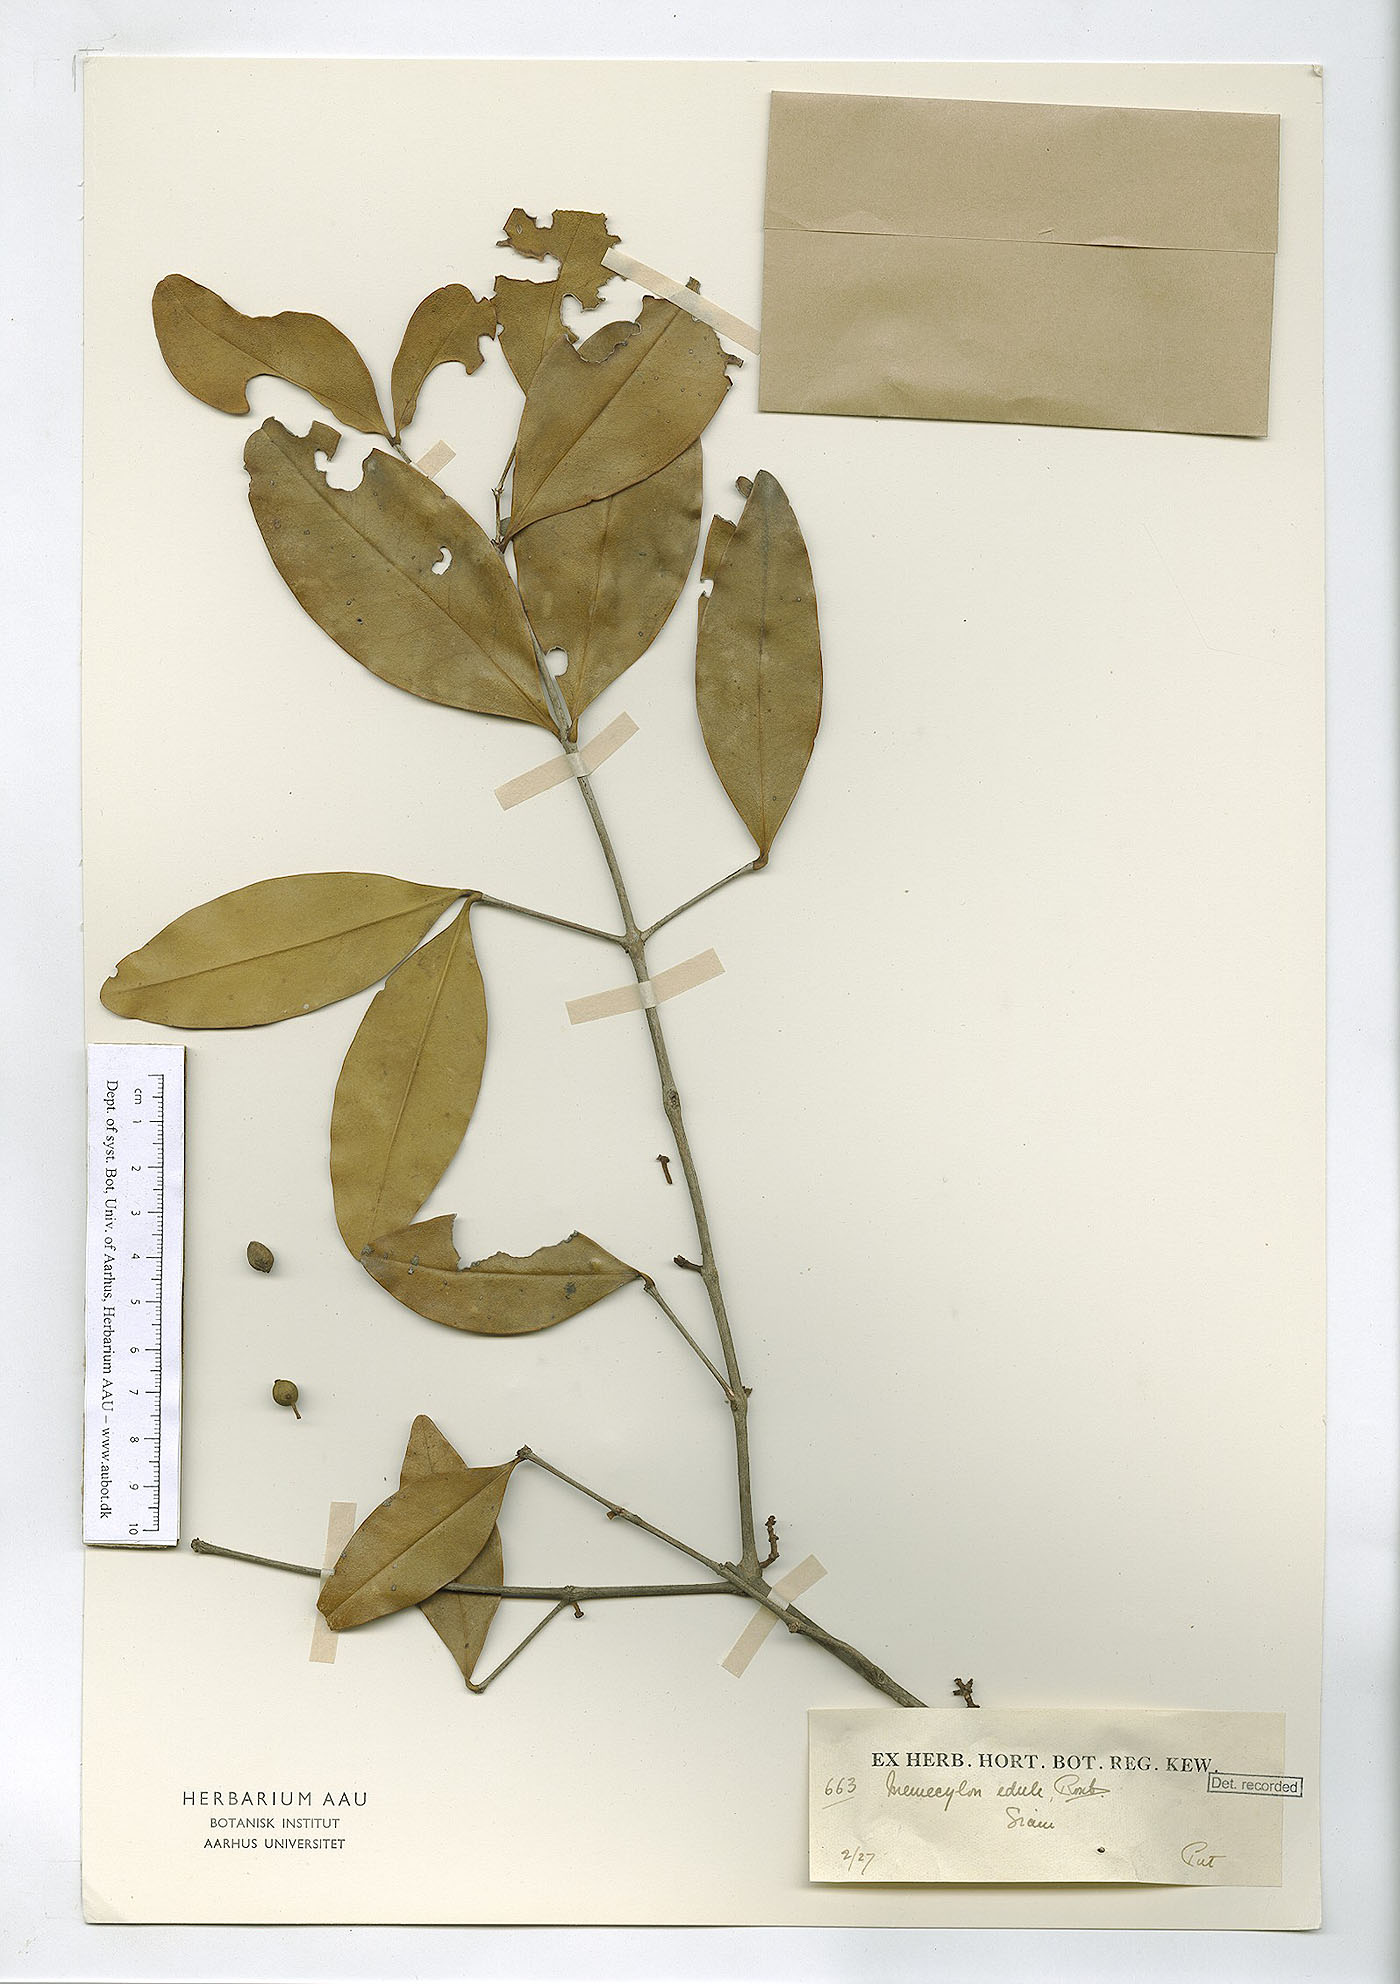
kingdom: Plantae
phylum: Tracheophyta
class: Magnoliopsida
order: Myrtales
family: Melastomataceae
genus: Memecylon
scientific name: Memecylon edule
